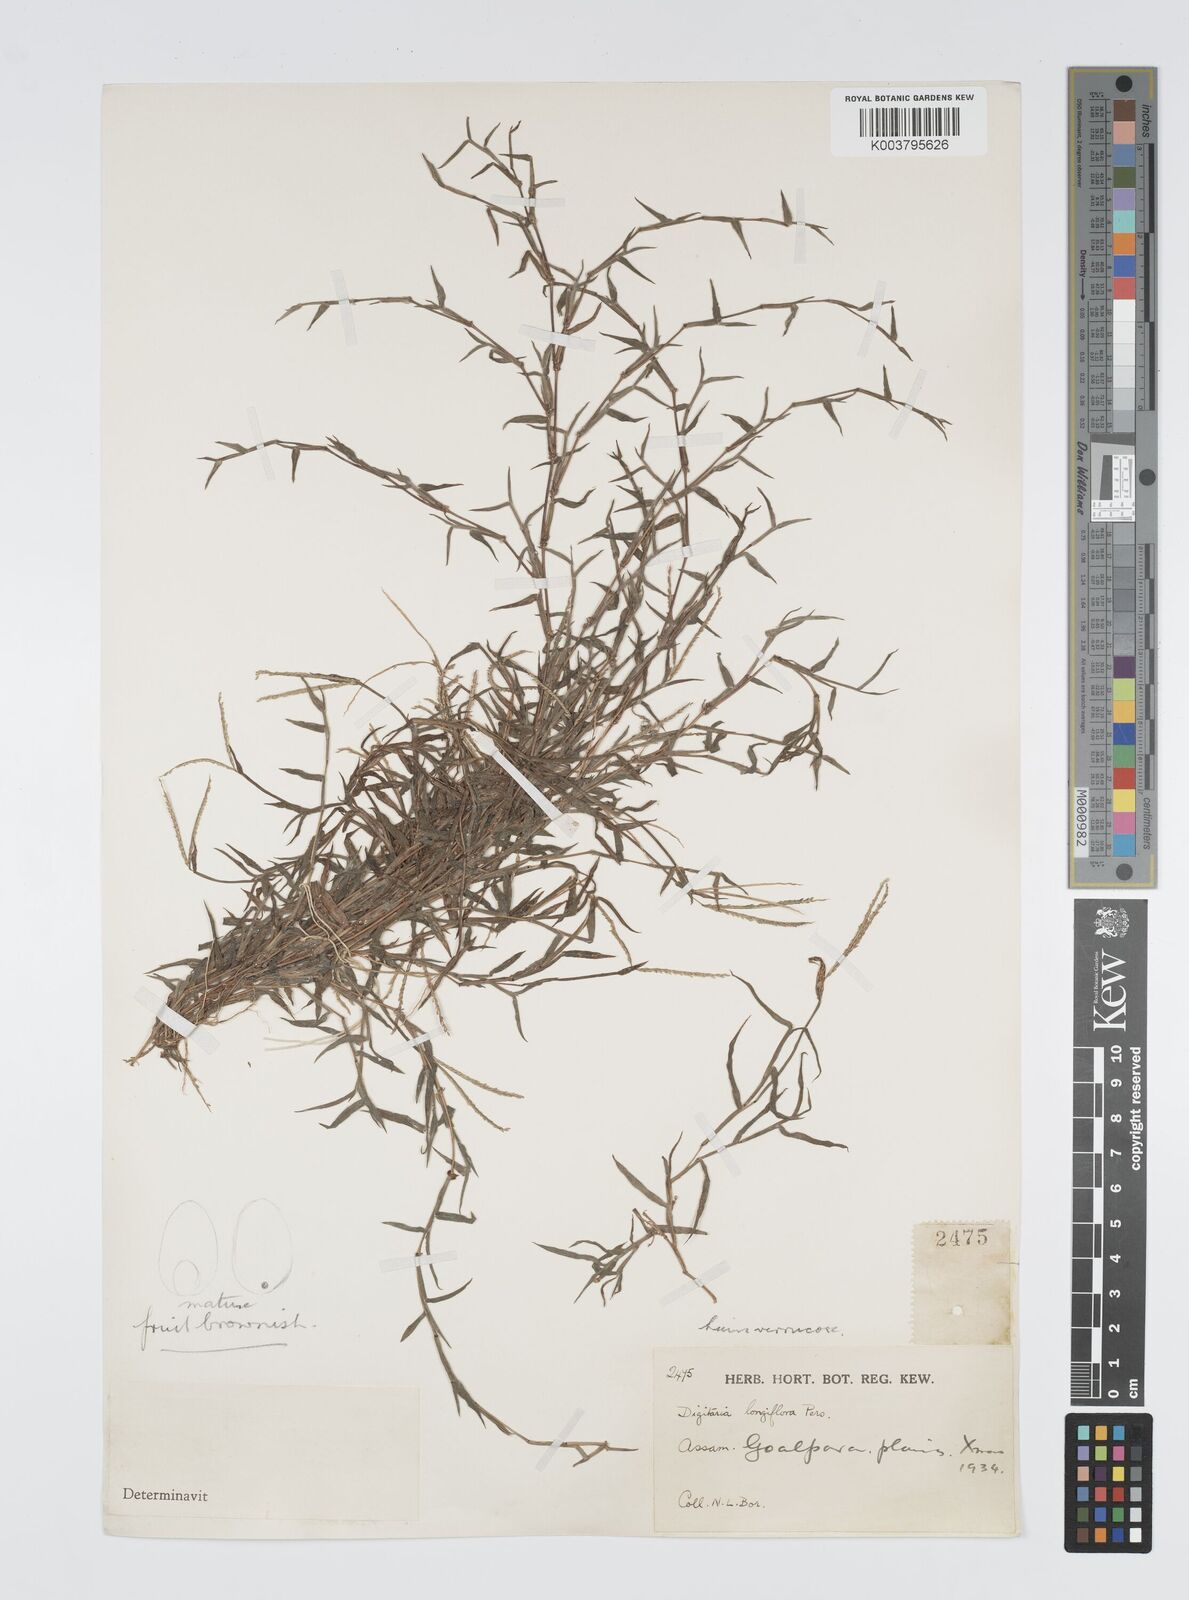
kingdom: Plantae
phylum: Tracheophyta
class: Liliopsida
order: Poales
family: Poaceae
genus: Digitaria
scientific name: Digitaria longiflora
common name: Wire crabgrass
